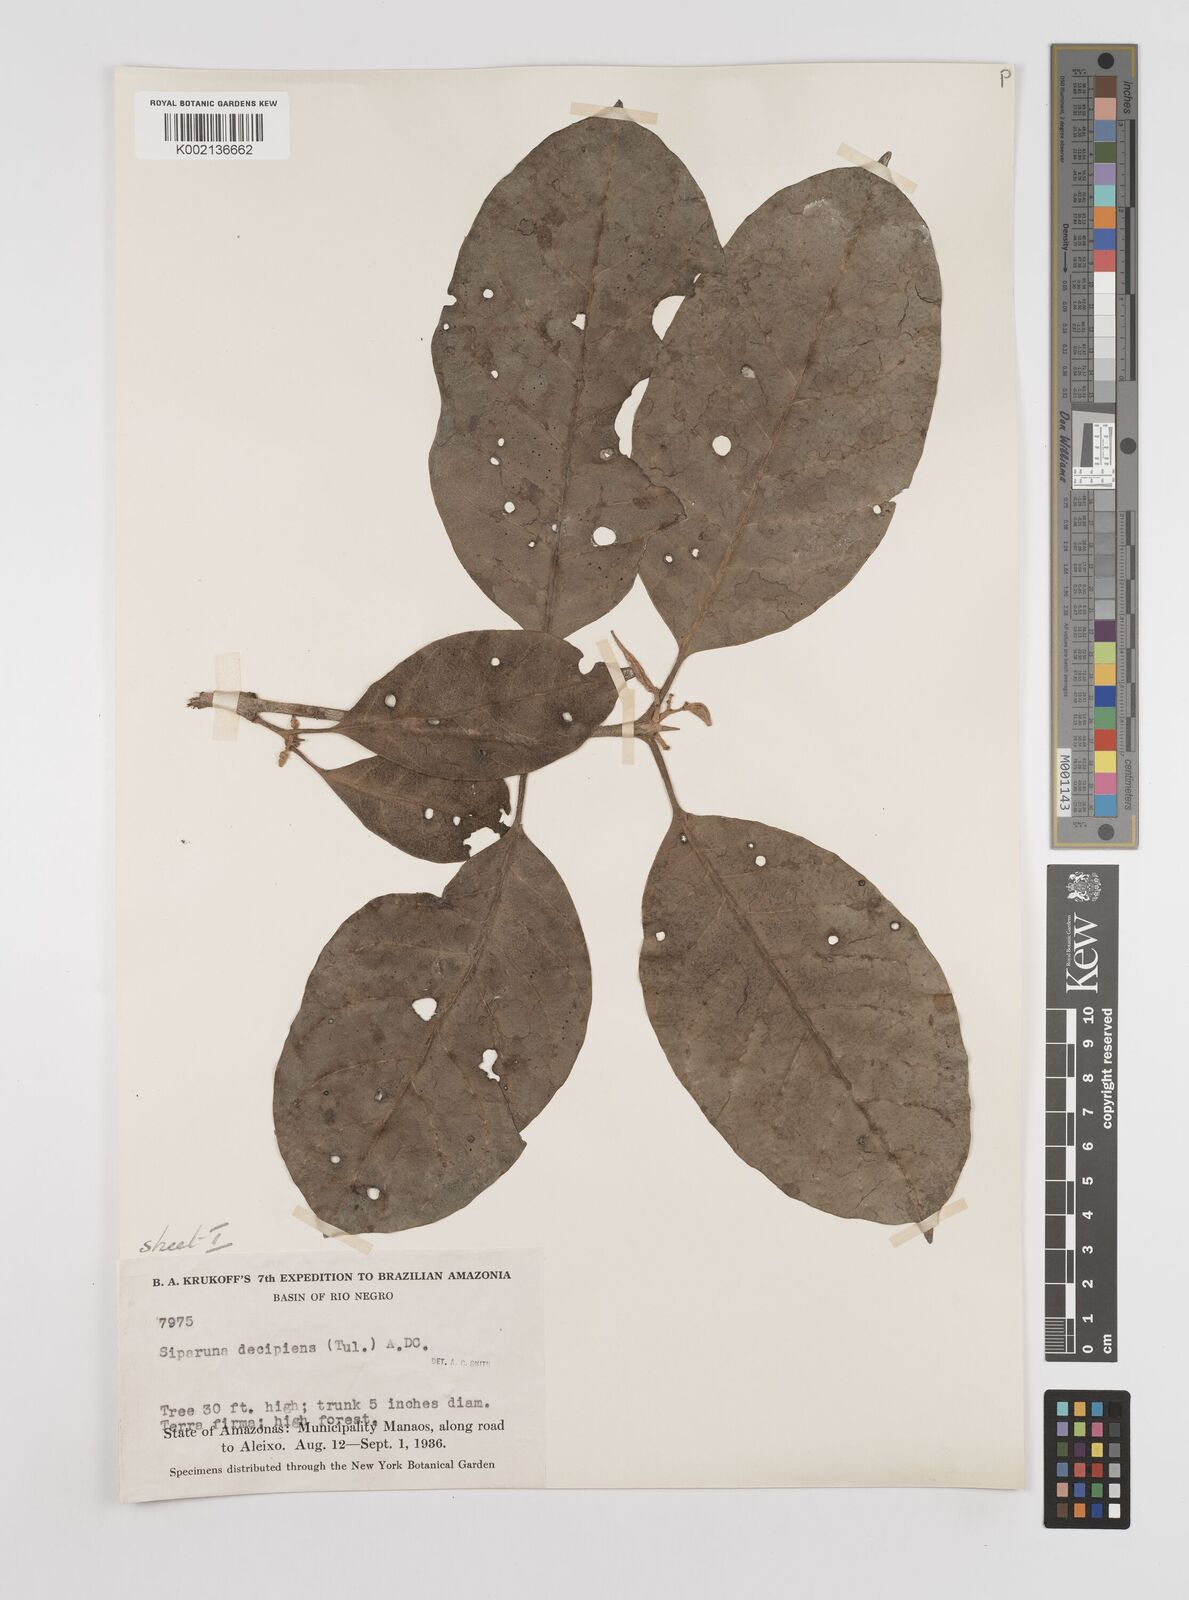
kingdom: Plantae
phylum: Tracheophyta
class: Magnoliopsida
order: Laurales
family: Siparunaceae
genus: Siparuna
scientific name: Siparuna decipiens
